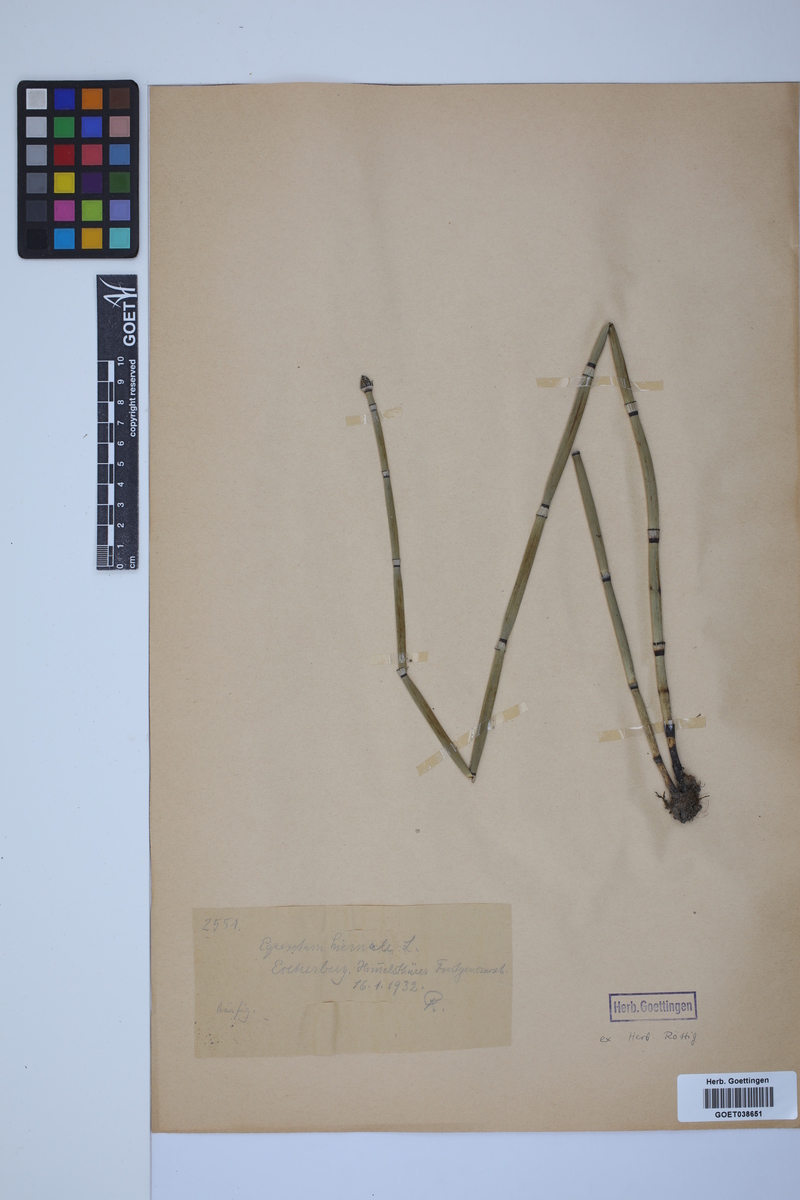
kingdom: Plantae
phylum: Tracheophyta
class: Polypodiopsida
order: Equisetales
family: Equisetaceae
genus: Equisetum
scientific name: Equisetum hyemale
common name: Rough horsetail
